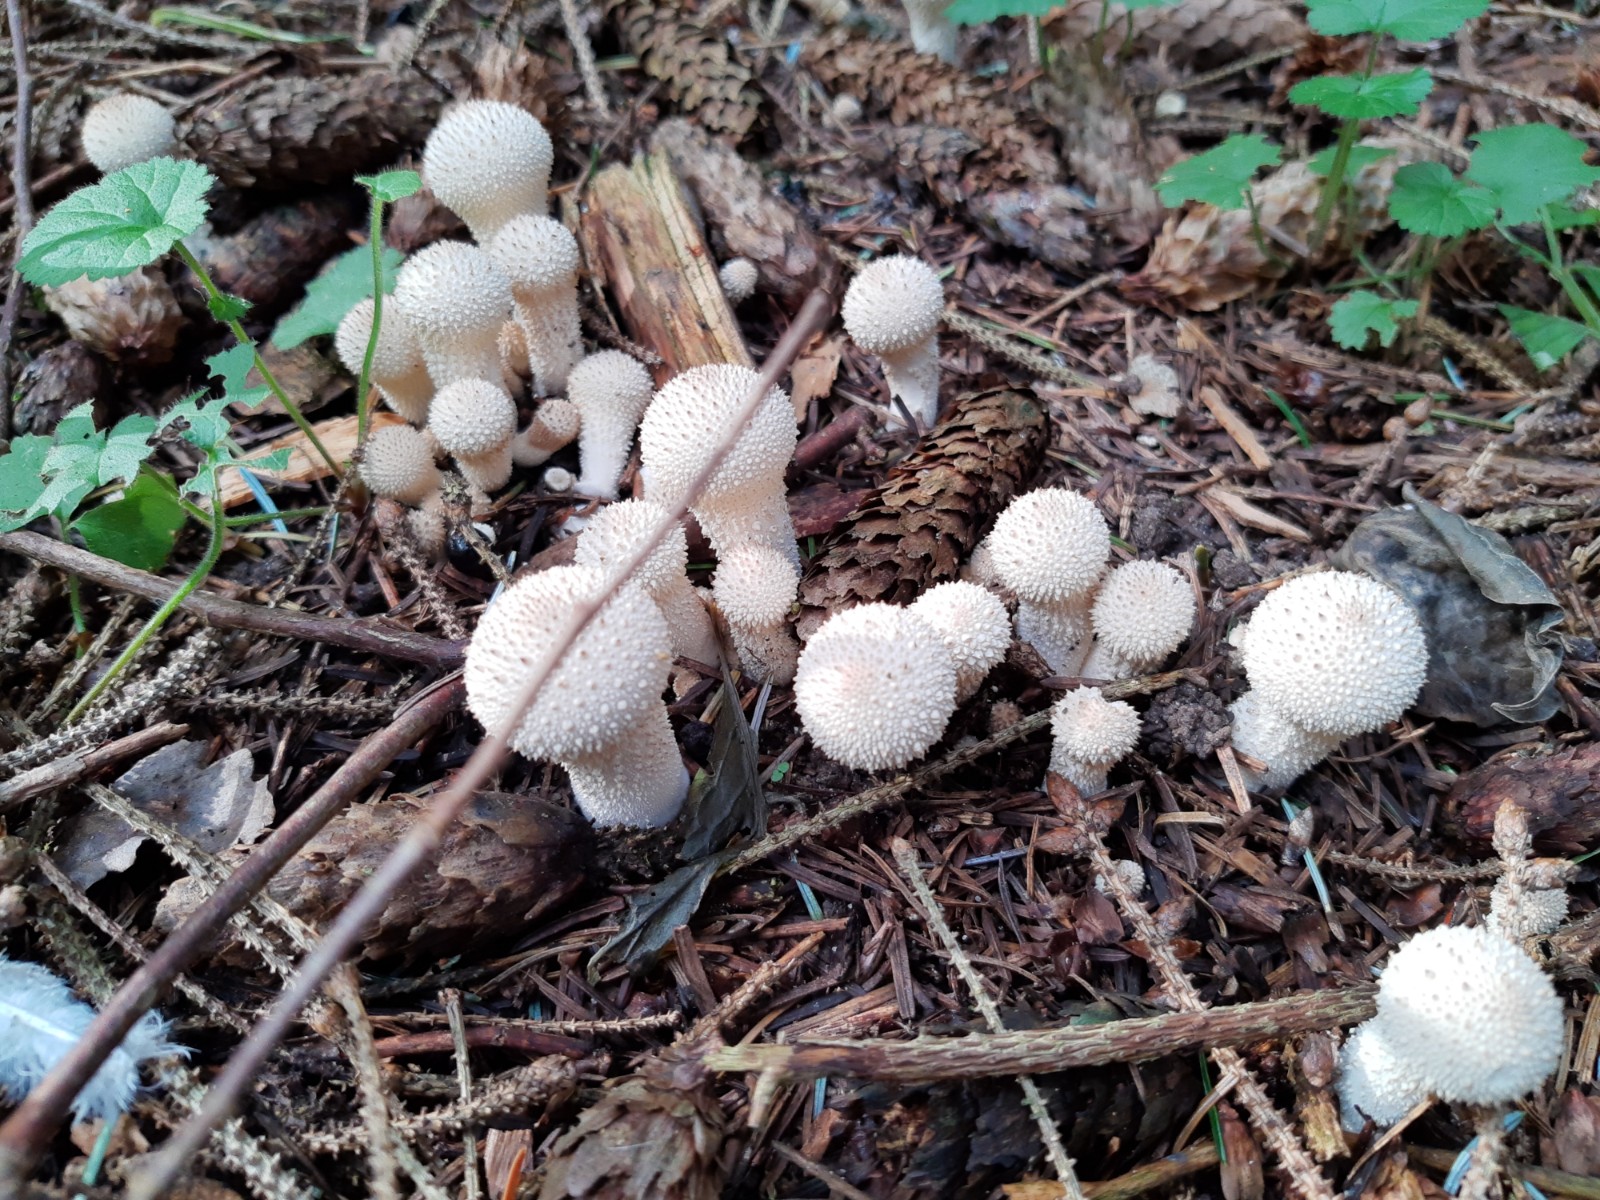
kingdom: Fungi
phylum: Basidiomycota
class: Agaricomycetes
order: Agaricales
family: Lycoperdaceae
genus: Lycoperdon
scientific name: Lycoperdon perlatum
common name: krystal-støvbold
